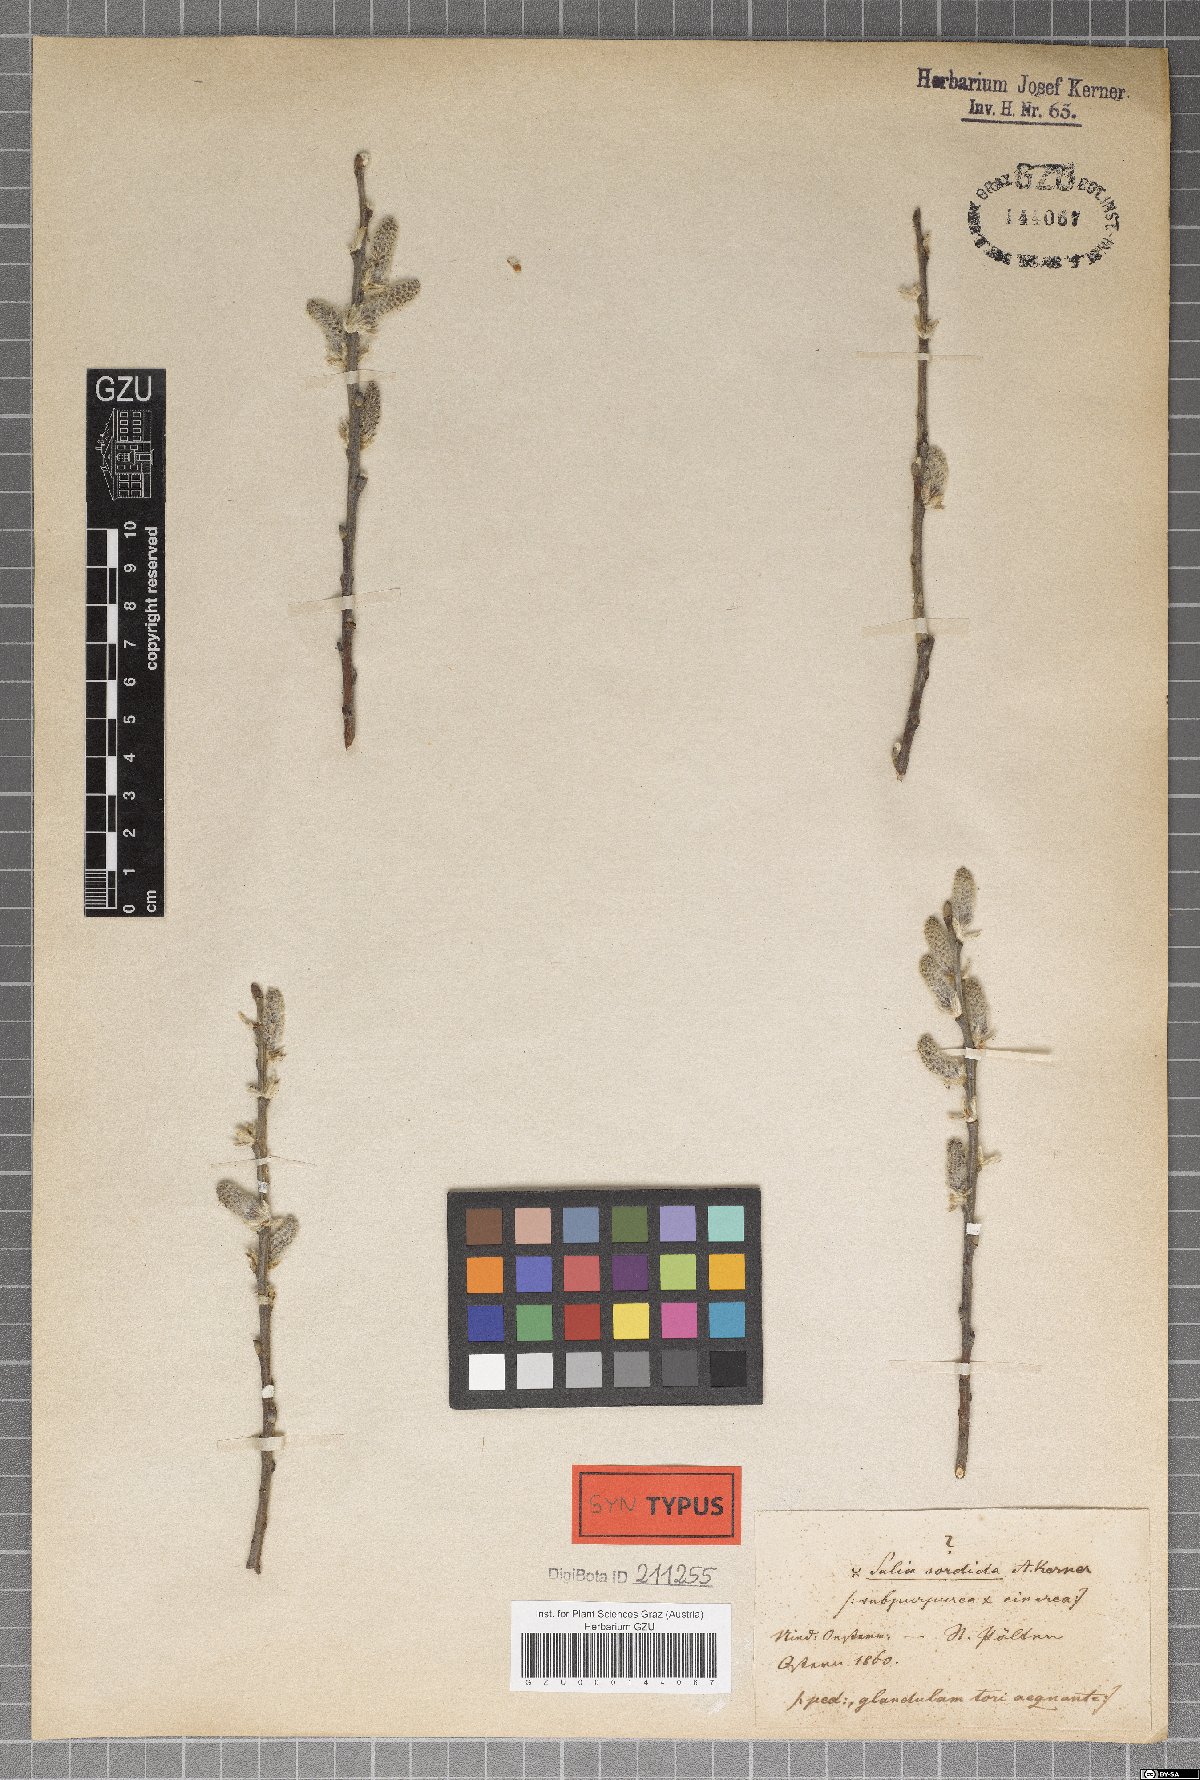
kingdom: Plantae
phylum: Tracheophyta
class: Magnoliopsida
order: Malpighiales
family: Salicaceae
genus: Salix
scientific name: Salix sordida
